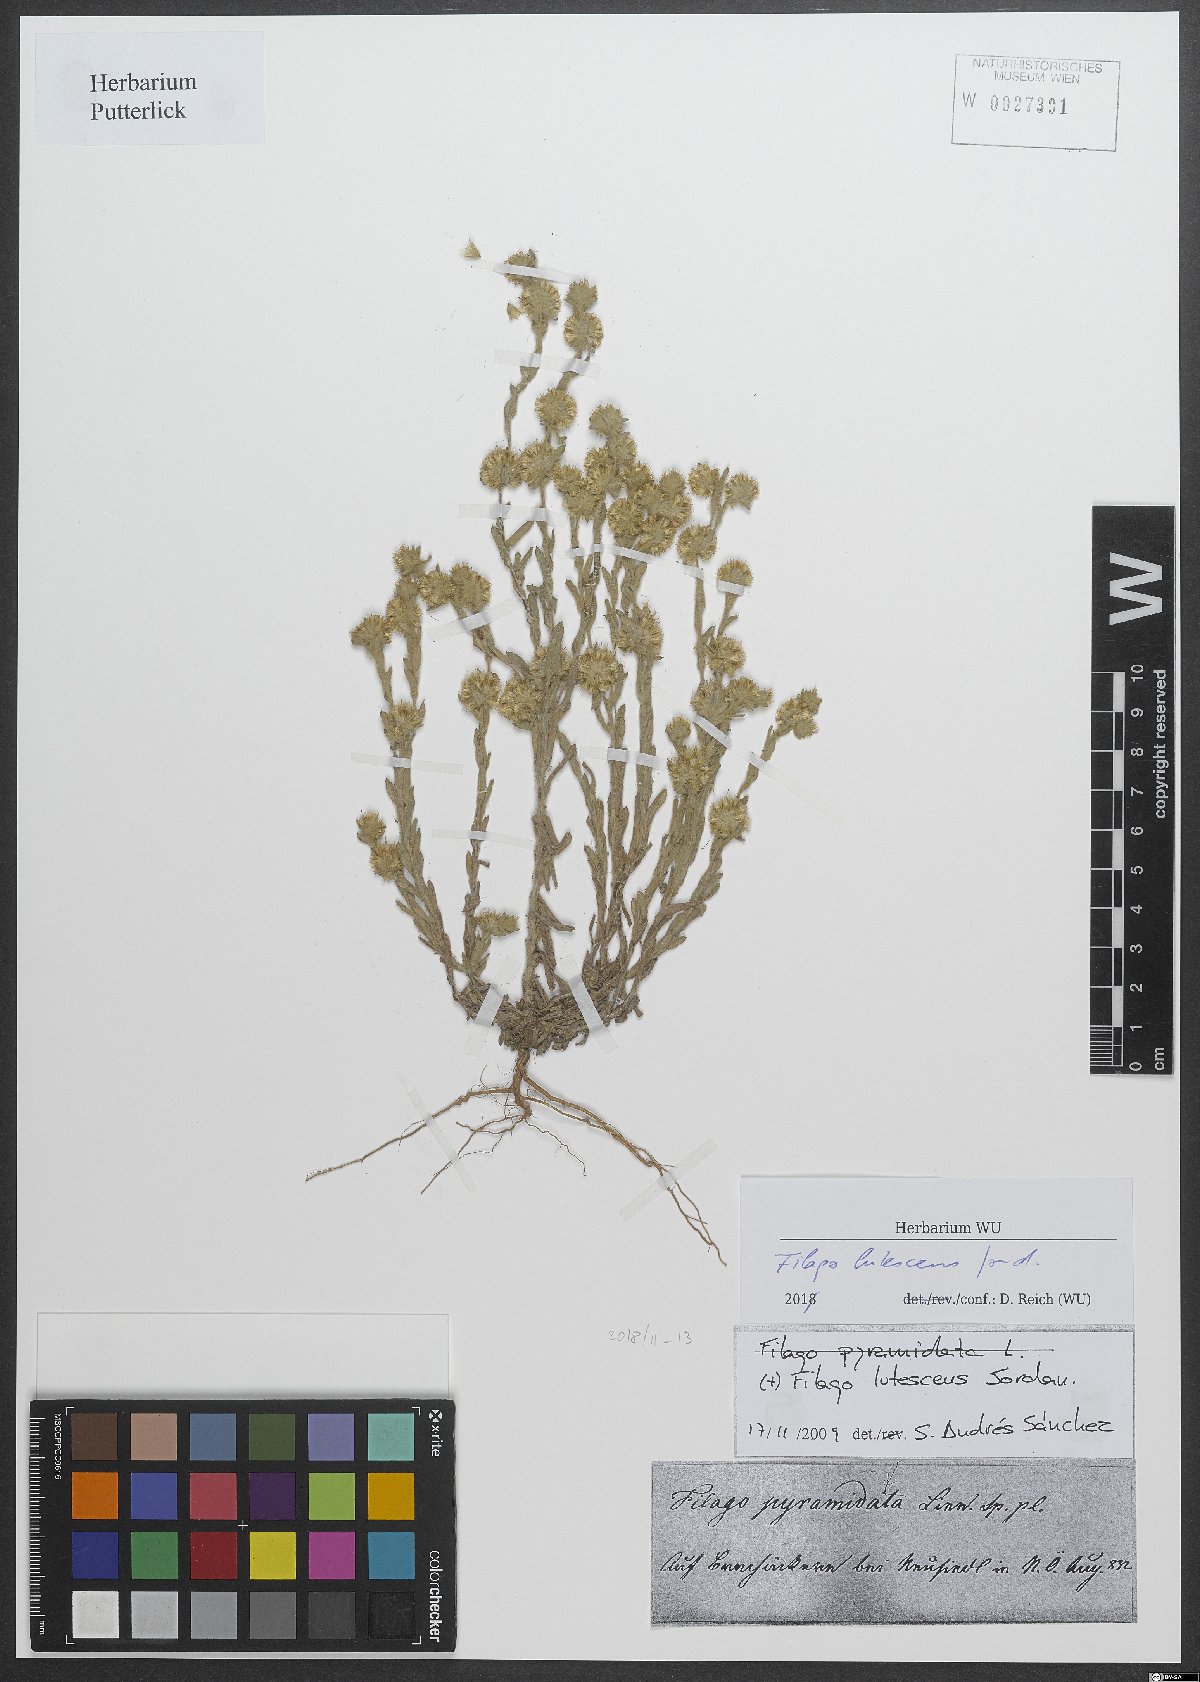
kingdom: Plantae
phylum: Tracheophyta
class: Magnoliopsida
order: Asterales
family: Asteraceae
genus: Filago
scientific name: Filago lutescens
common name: Red-tipped cudweed
